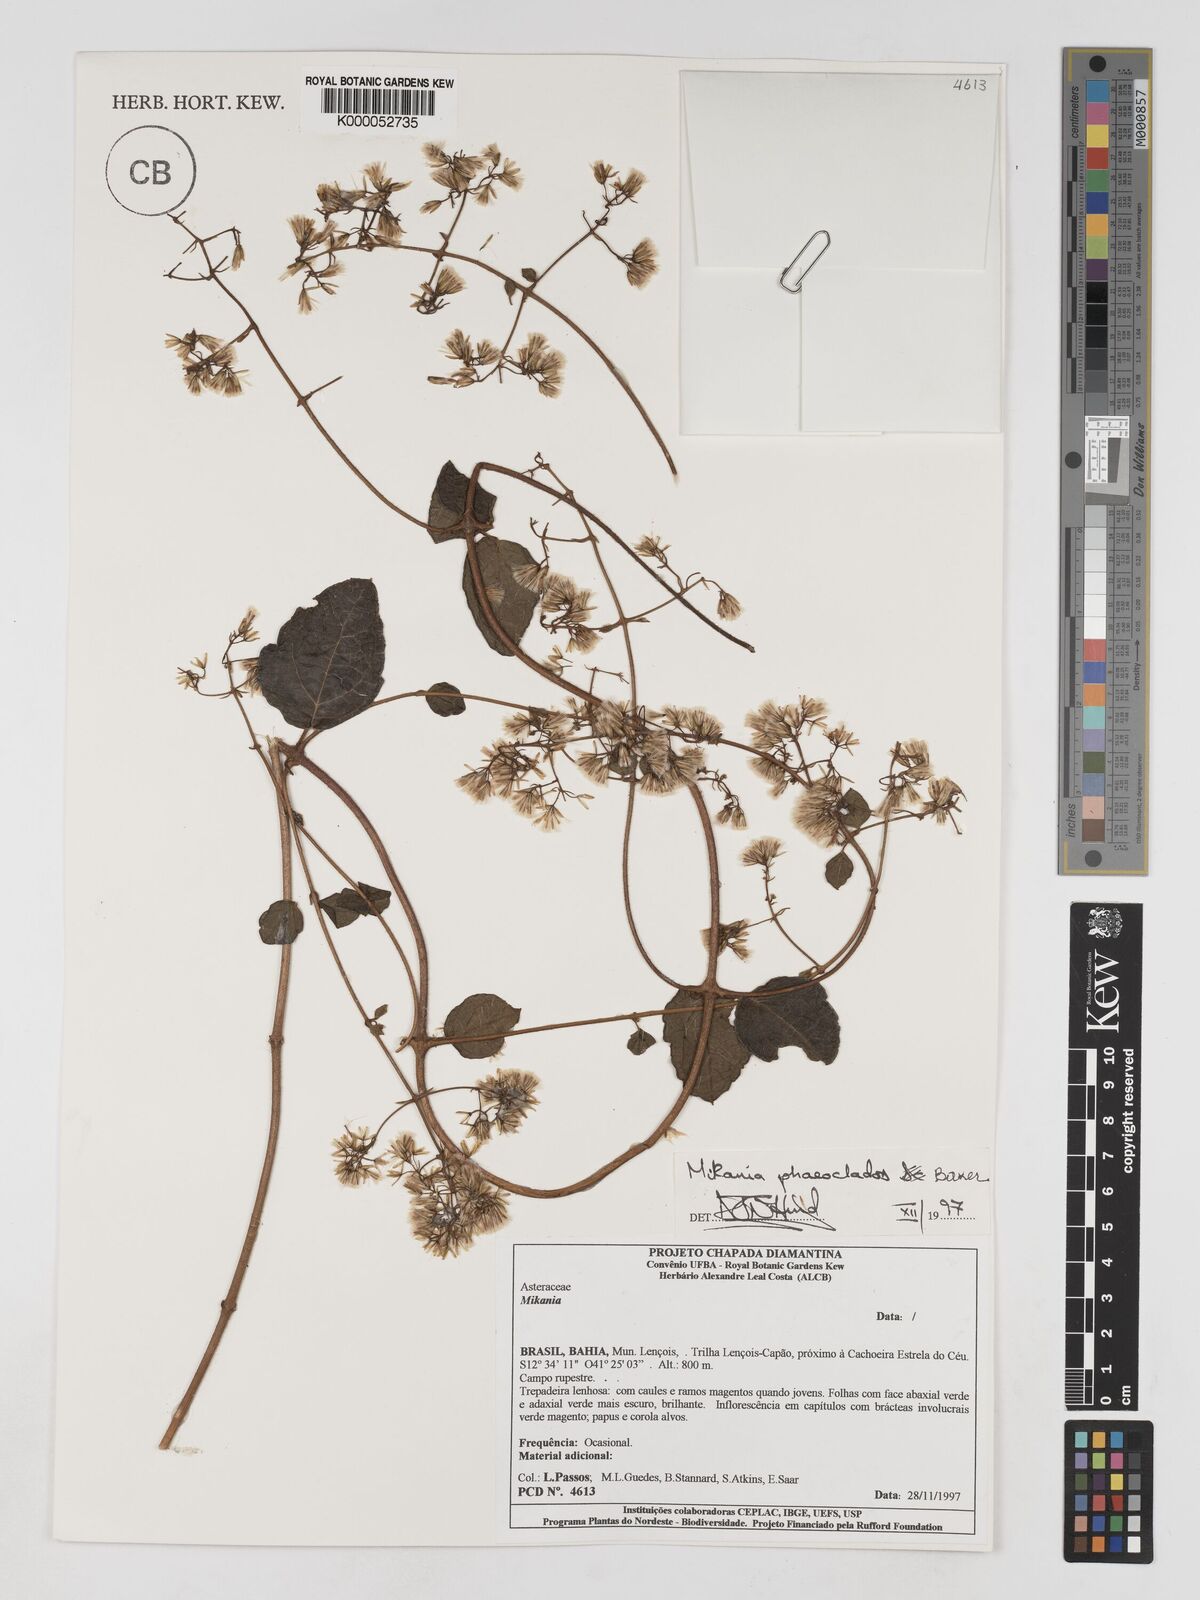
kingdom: Plantae
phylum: Tracheophyta
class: Magnoliopsida
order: Asterales
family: Asteraceae
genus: Mikania
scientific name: Mikania phaeoclados
